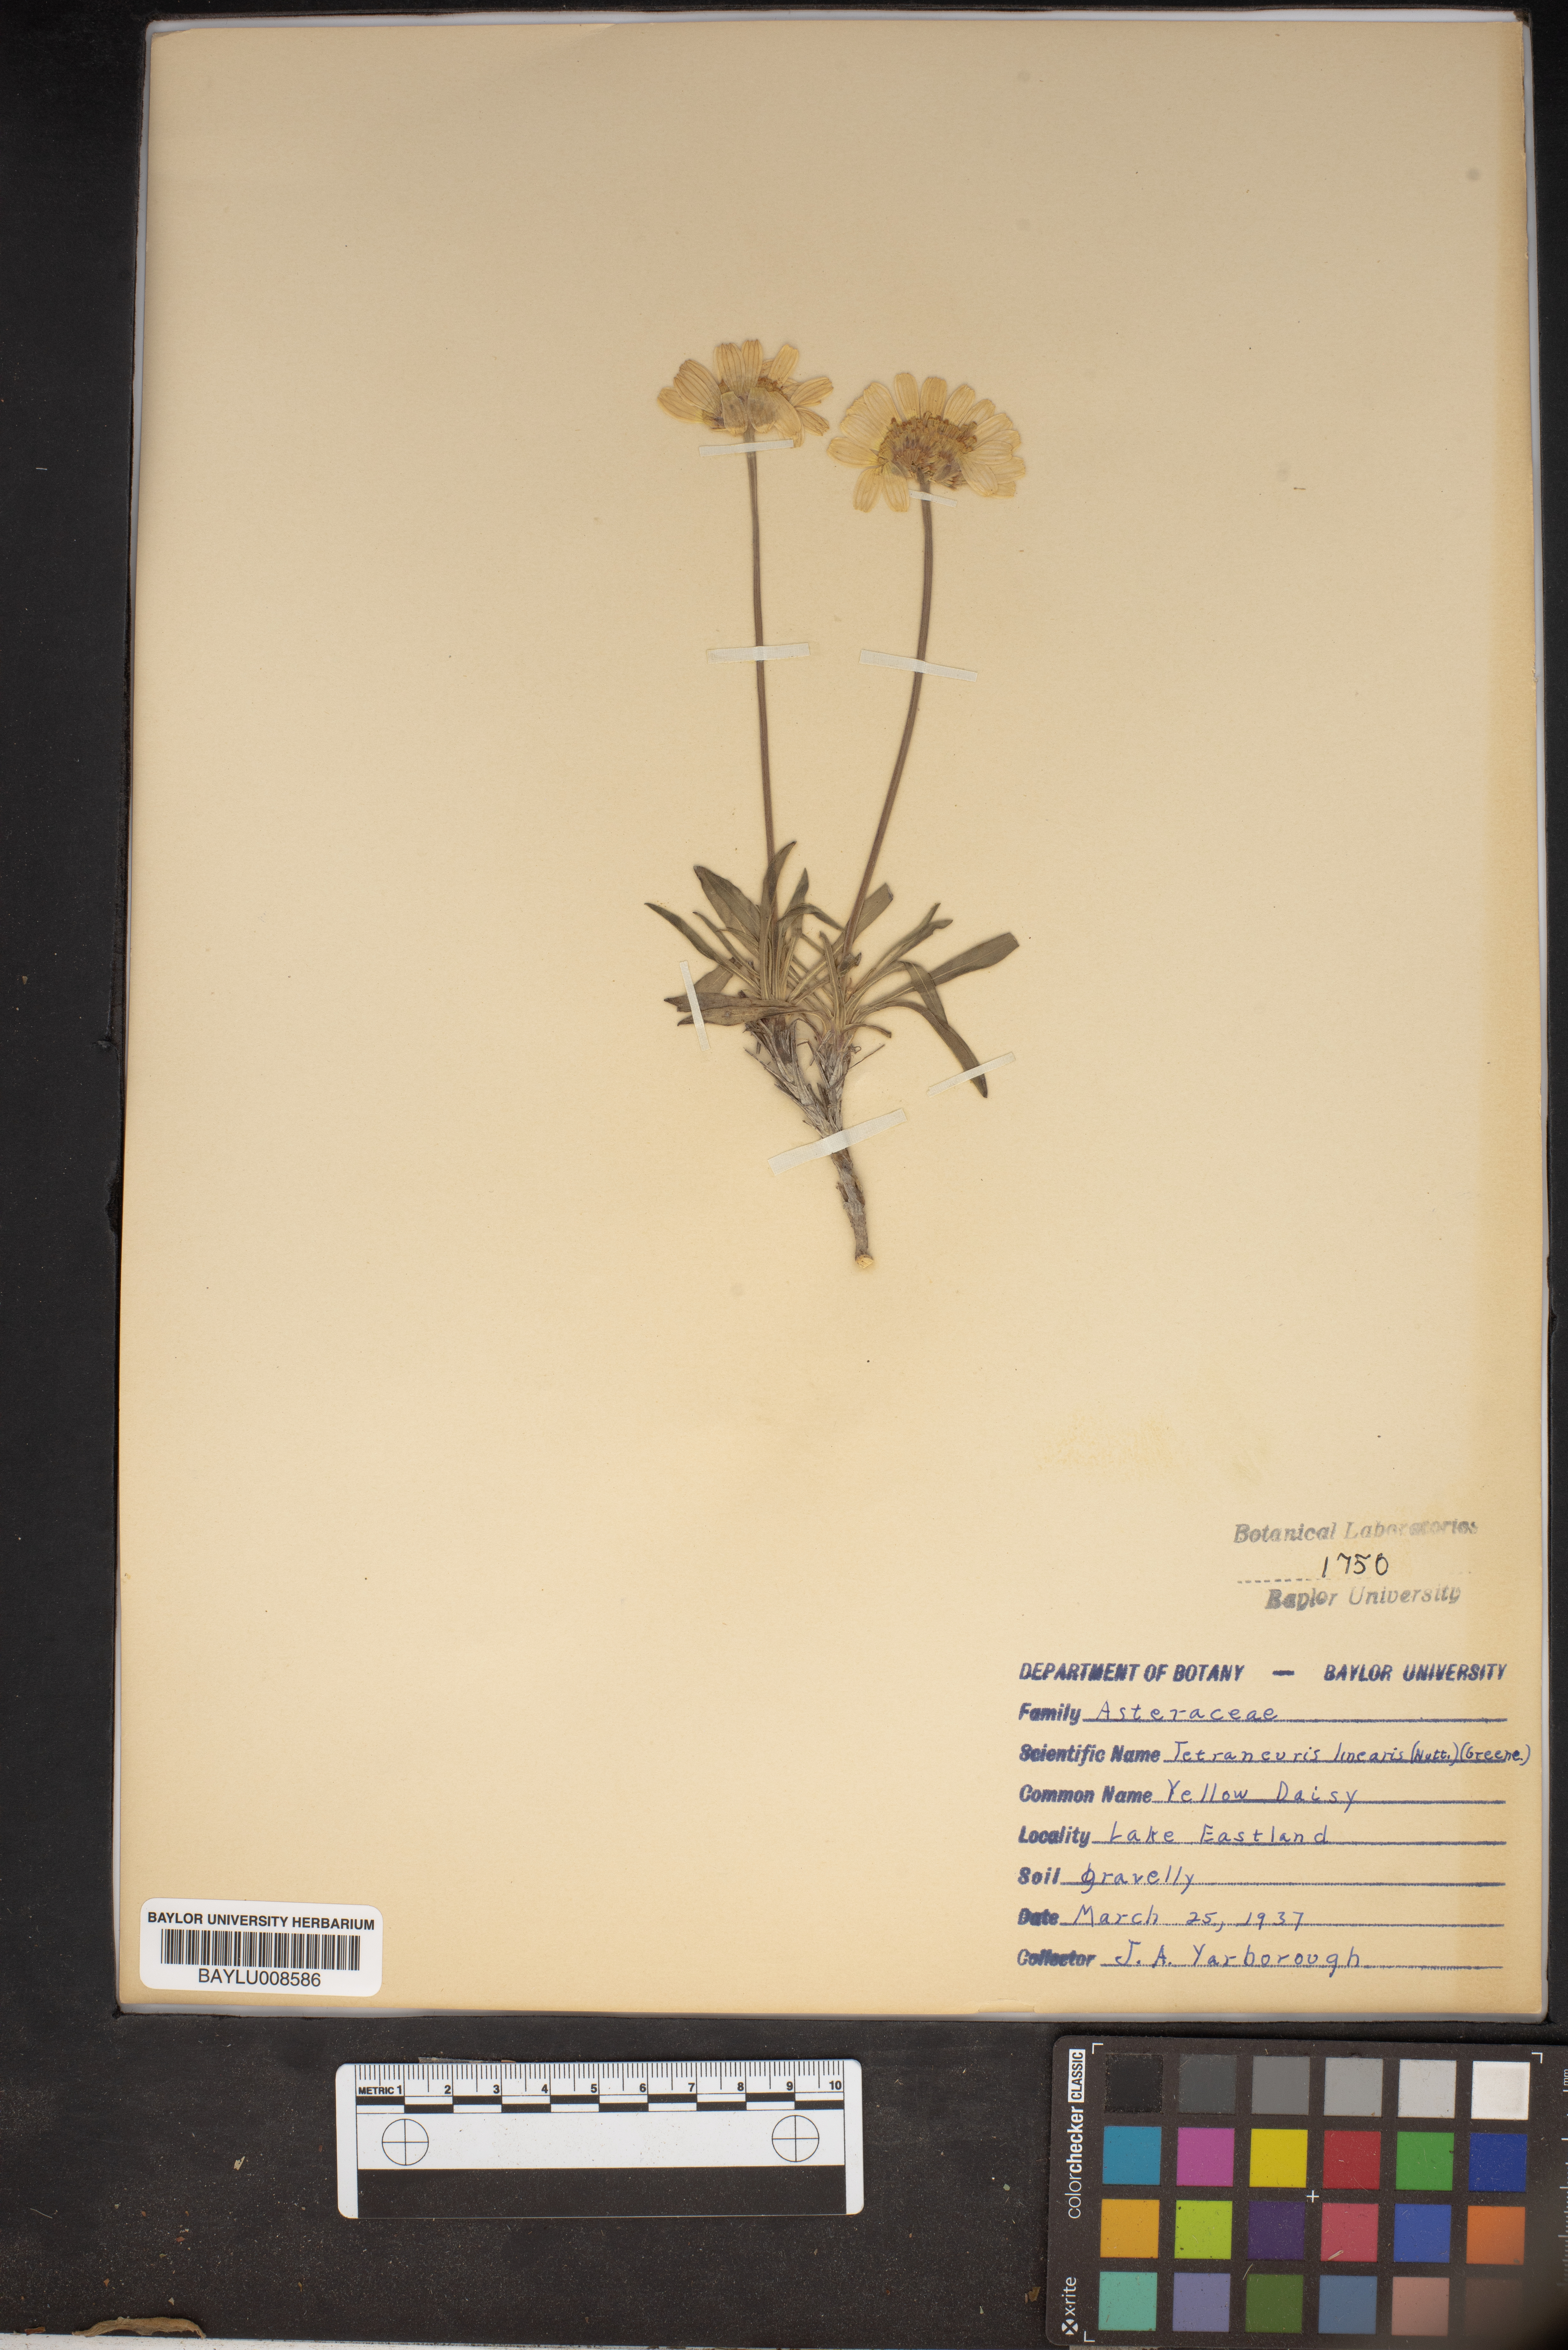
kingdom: Plantae
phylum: Tracheophyta
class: Magnoliopsida
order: Asterales
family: Asteraceae
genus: Tetraneuris
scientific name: Tetraneuris scaposa
